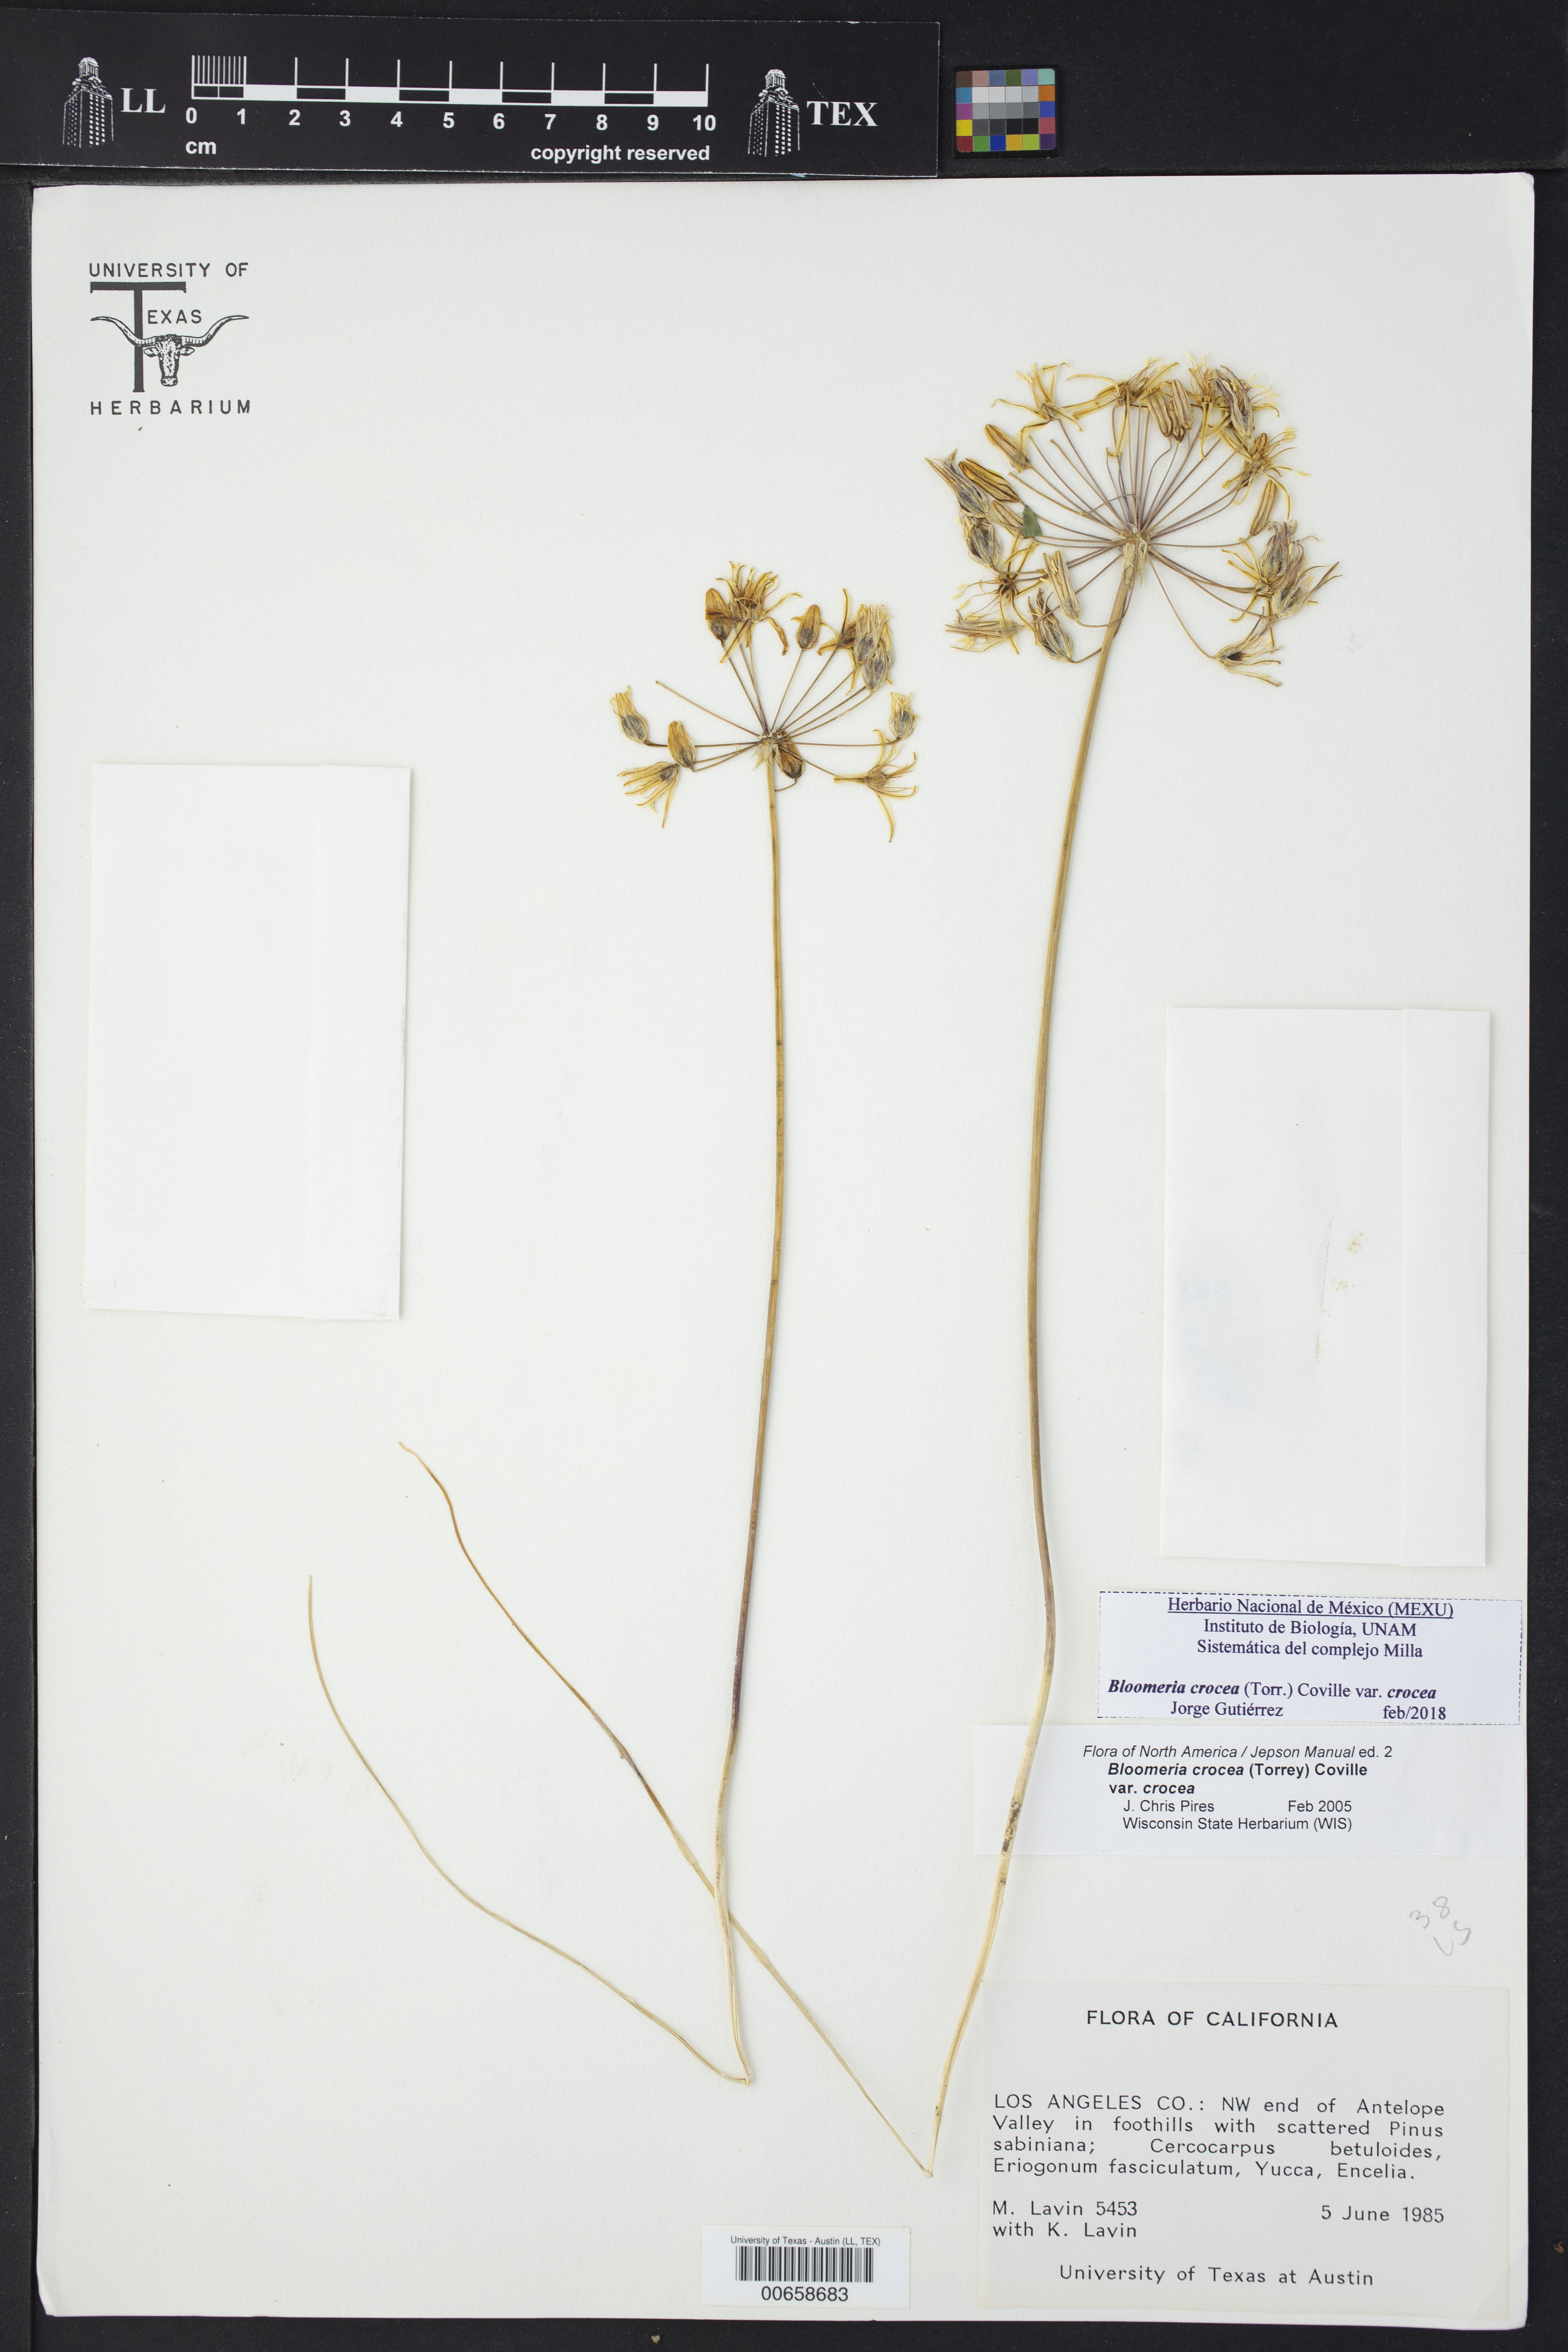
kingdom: Plantae
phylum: Tracheophyta
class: Liliopsida
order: Asparagales
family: Asparagaceae
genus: Bloomeria
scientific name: Bloomeria crocea
